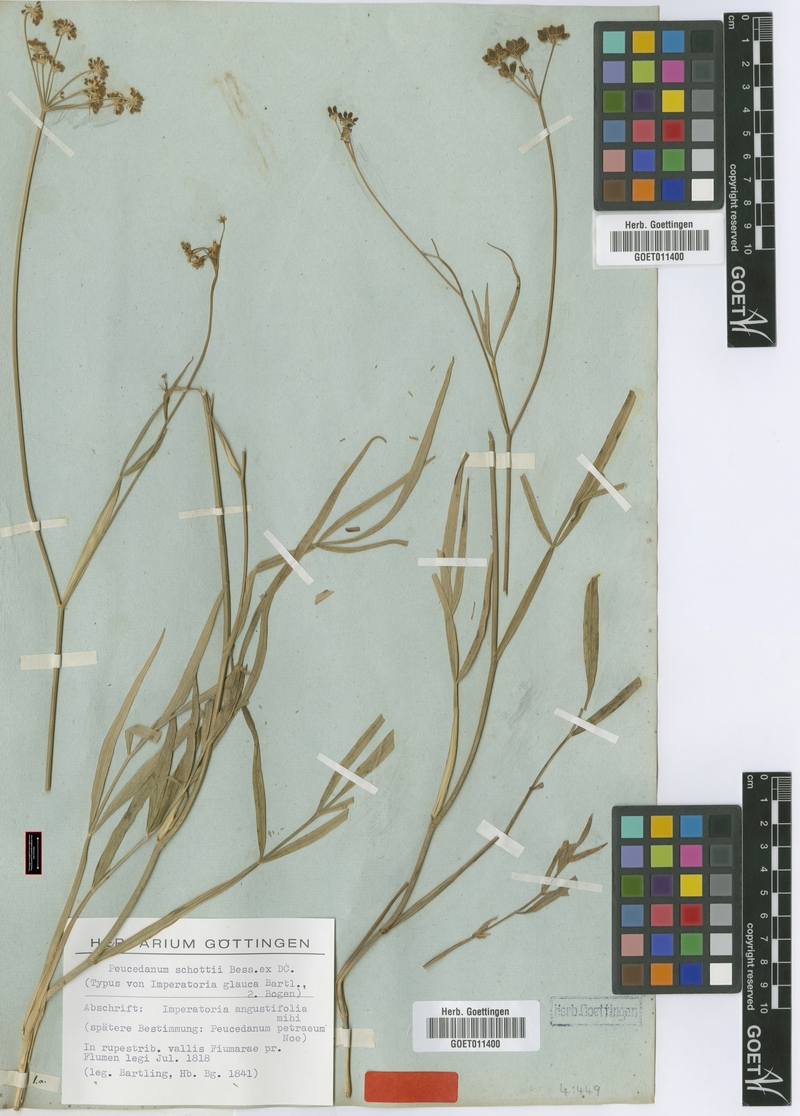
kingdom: Plantae
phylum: Tracheophyta
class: Magnoliopsida
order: Apiales
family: Apiaceae
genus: Dichoropetalum
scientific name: Dichoropetalum schottii
